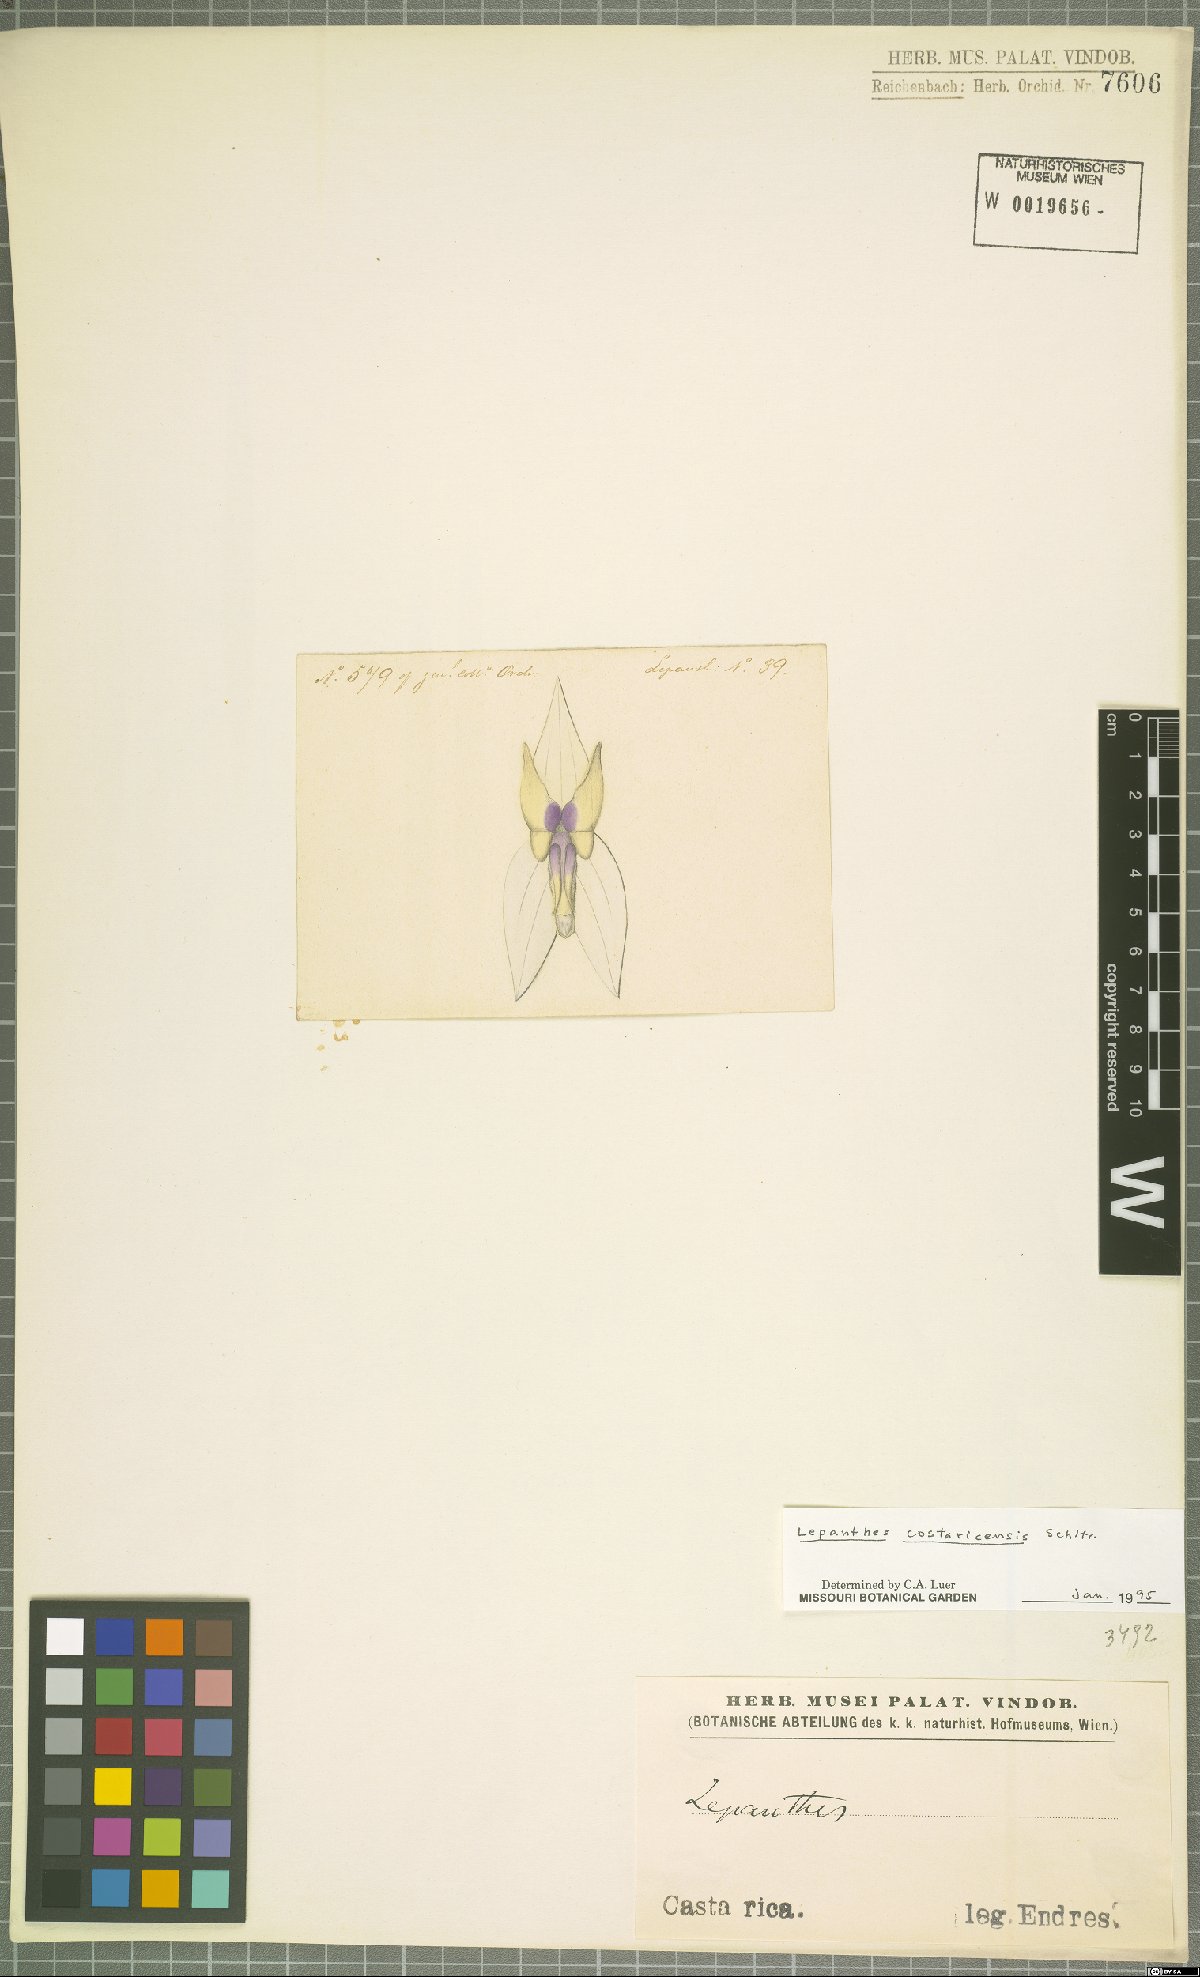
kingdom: Plantae
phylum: Tracheophyta
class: Liliopsida
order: Asparagales
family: Orchidaceae
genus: Lepanthes
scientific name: Lepanthes costaricensis
